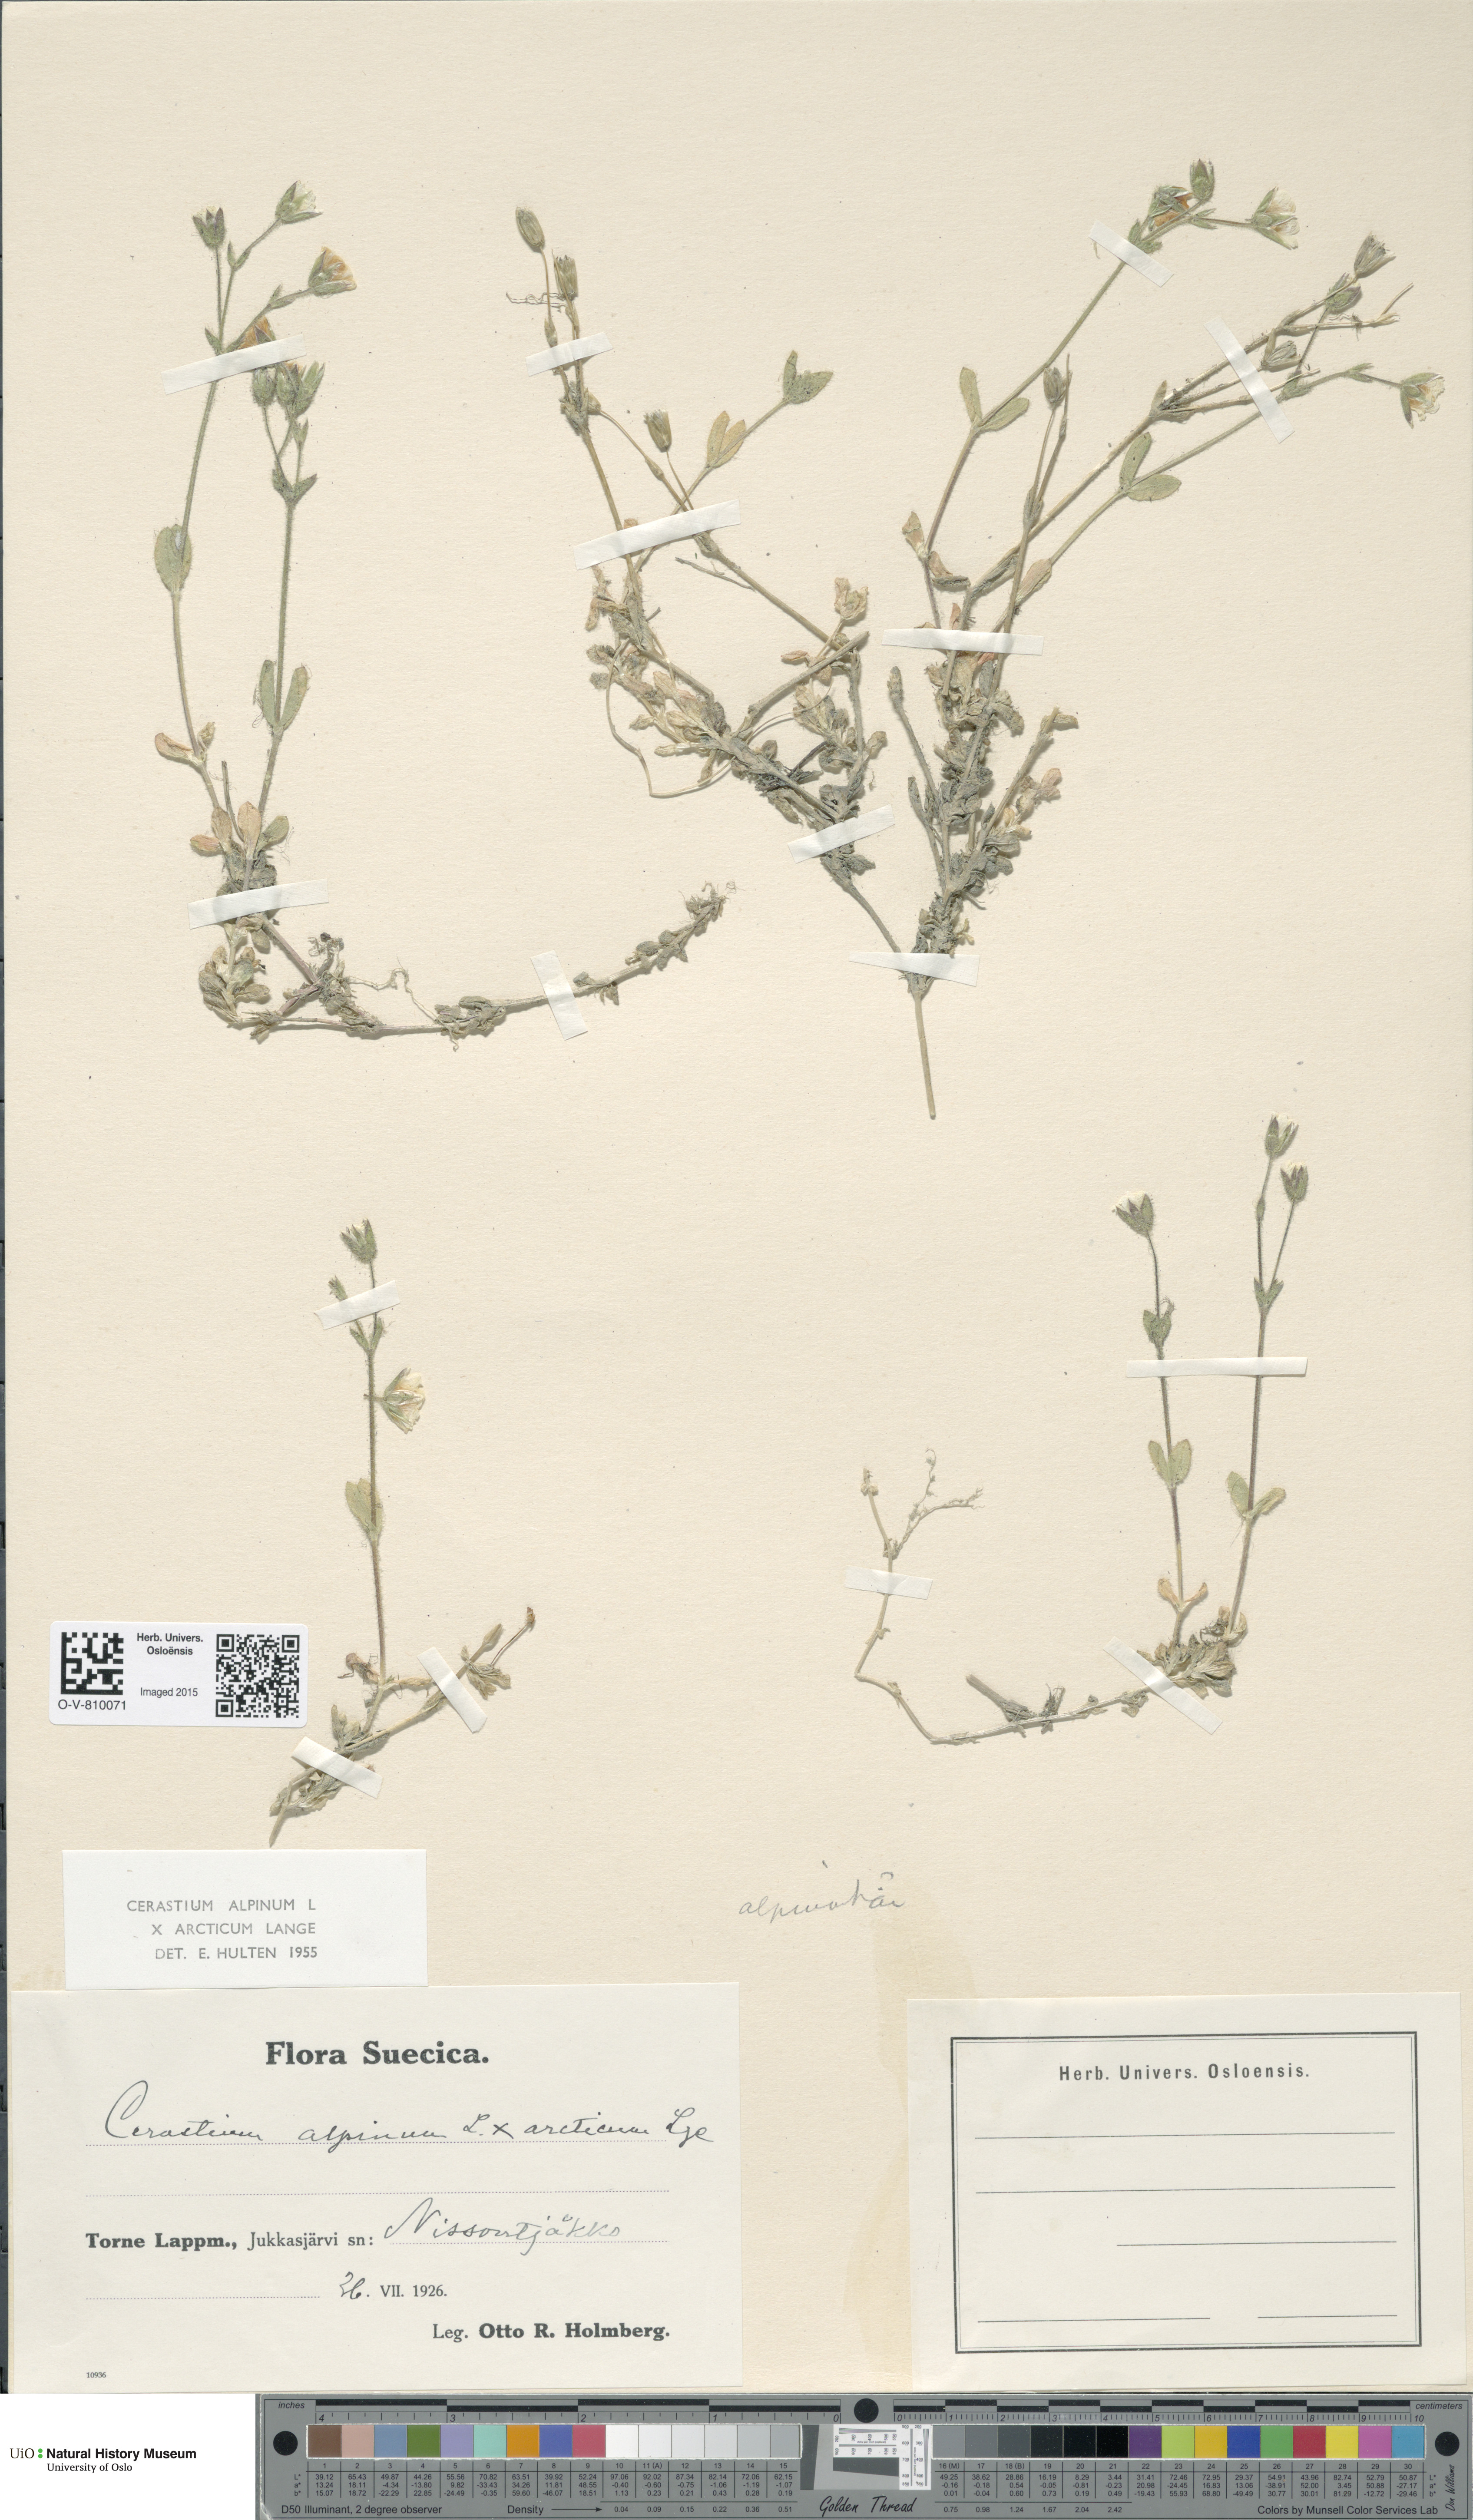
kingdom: Plantae
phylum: Tracheophyta
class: Magnoliopsida
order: Caryophyllales
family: Caryophyllaceae
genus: Cerastium
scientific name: Cerastium
